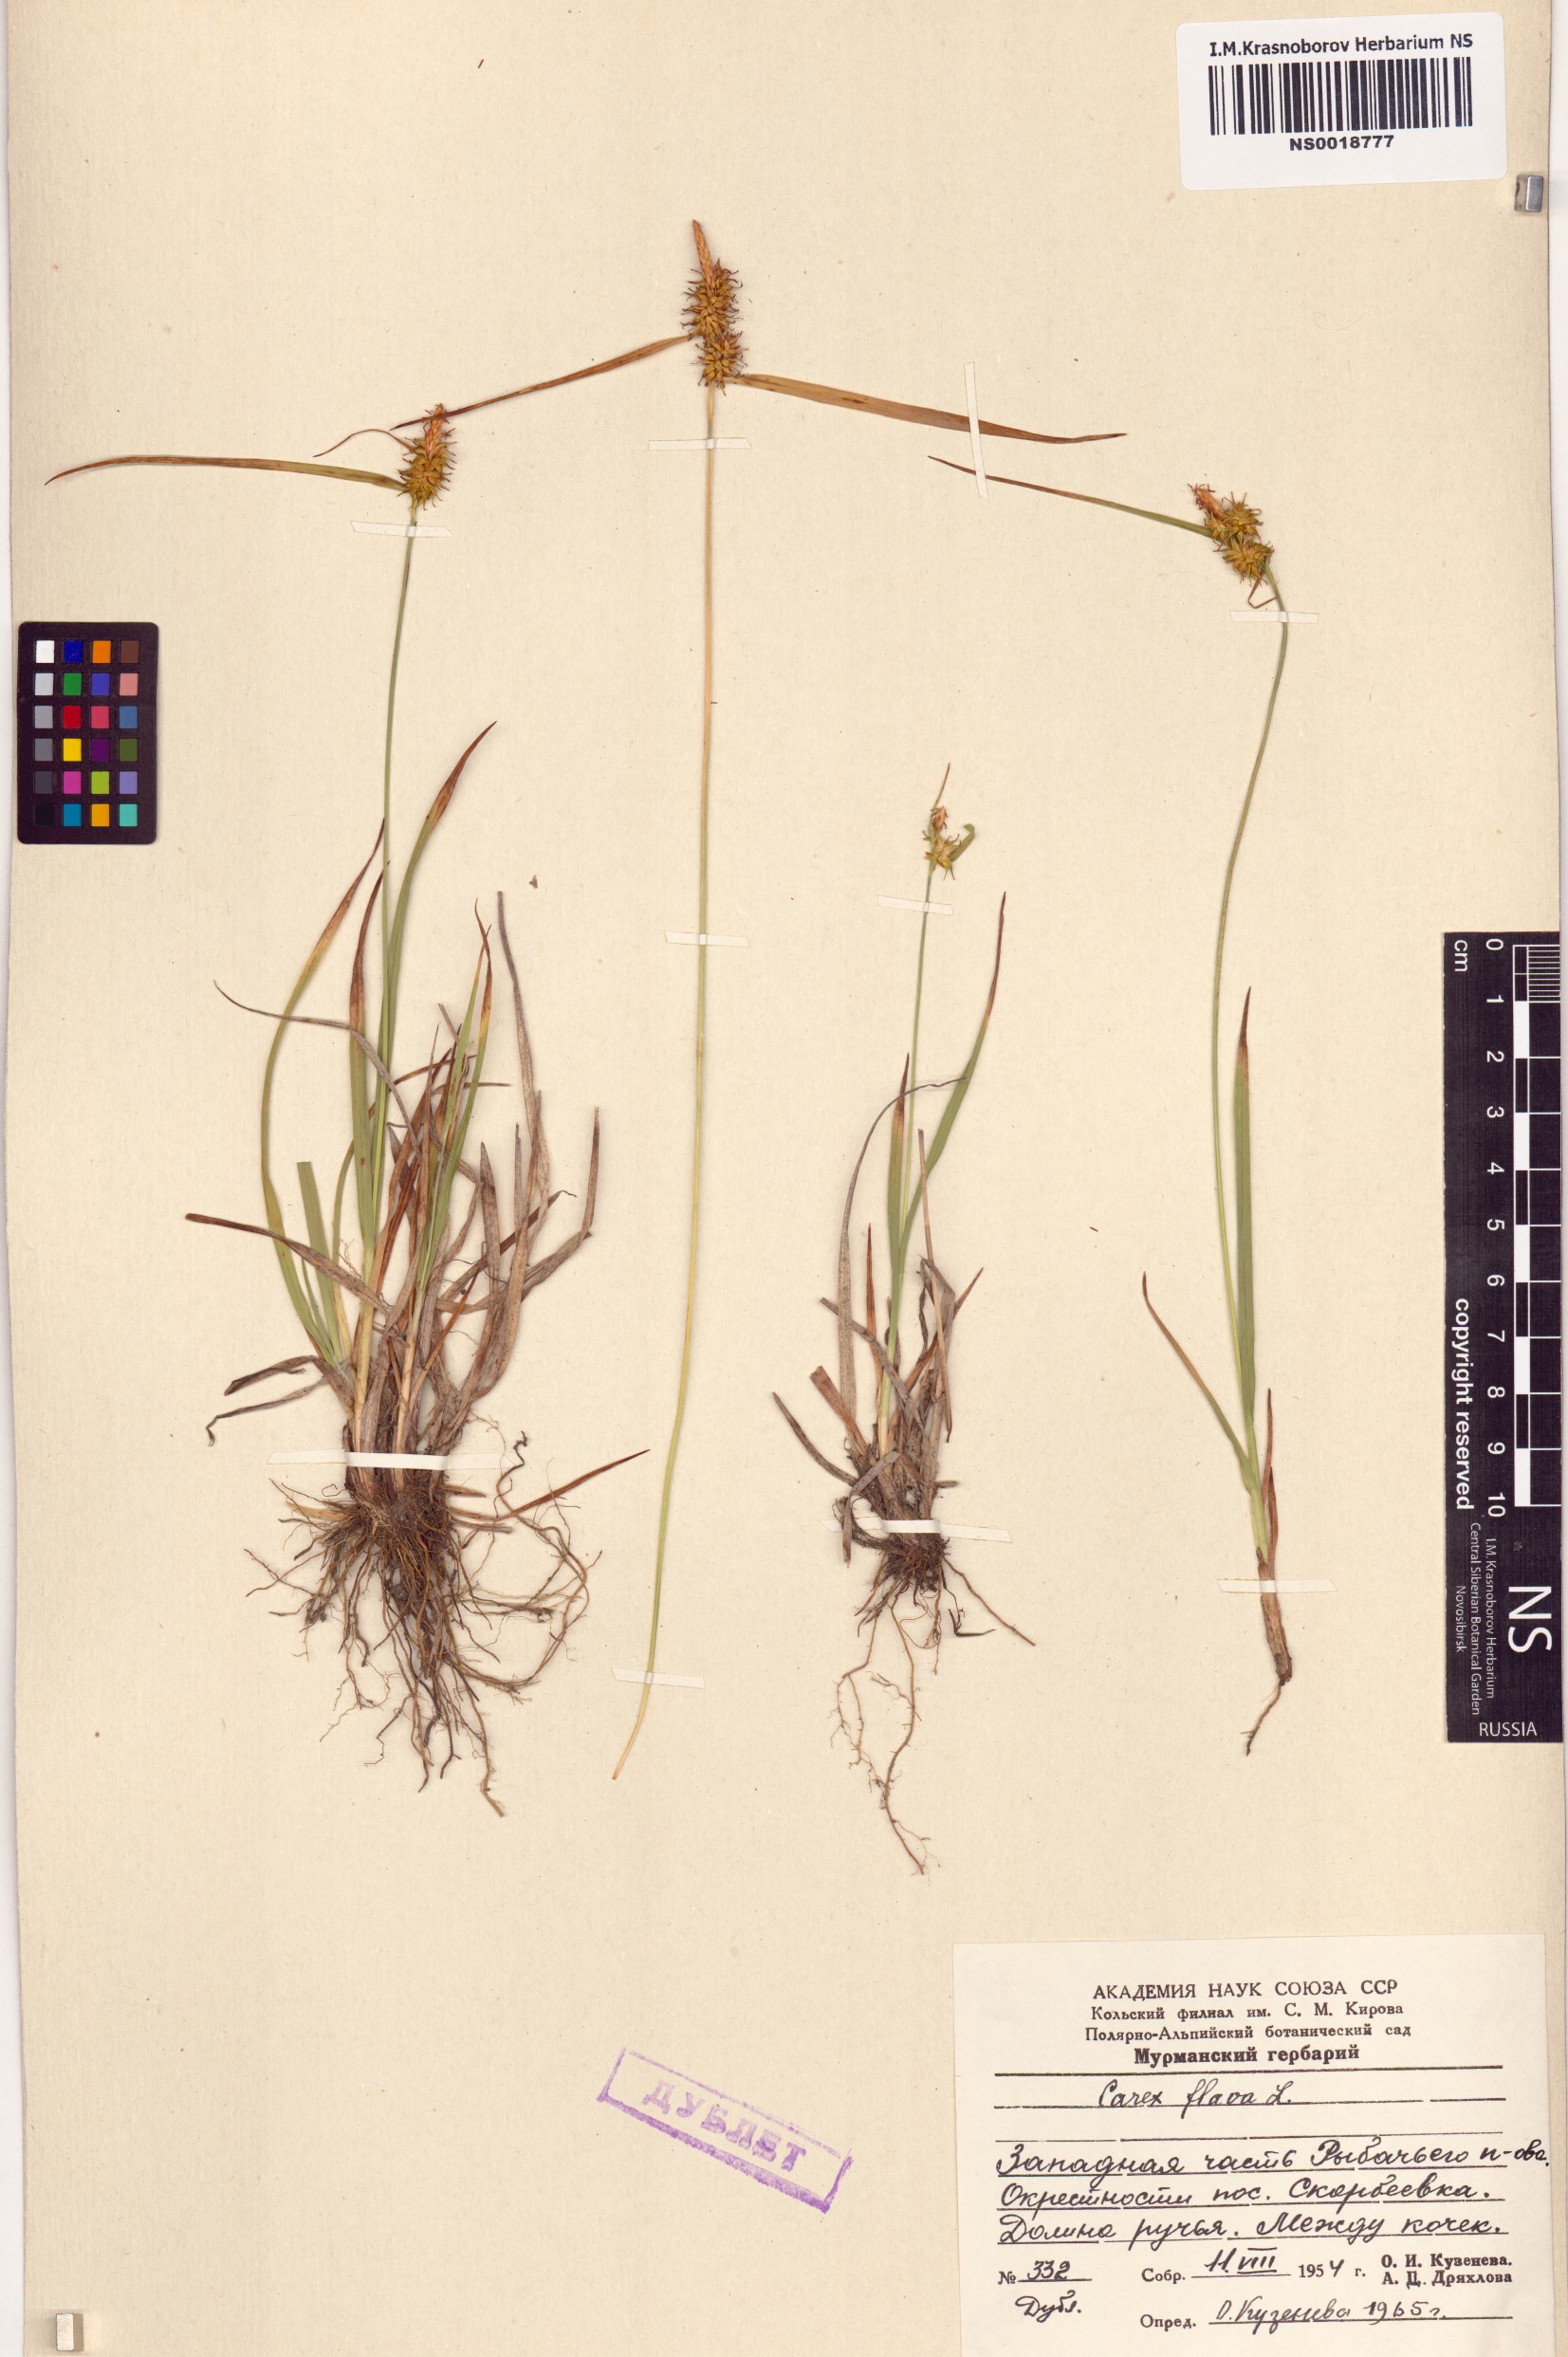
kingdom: Plantae
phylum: Tracheophyta
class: Liliopsida
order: Poales
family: Cyperaceae
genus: Carex
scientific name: Carex flava
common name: Large yellow-sedge
